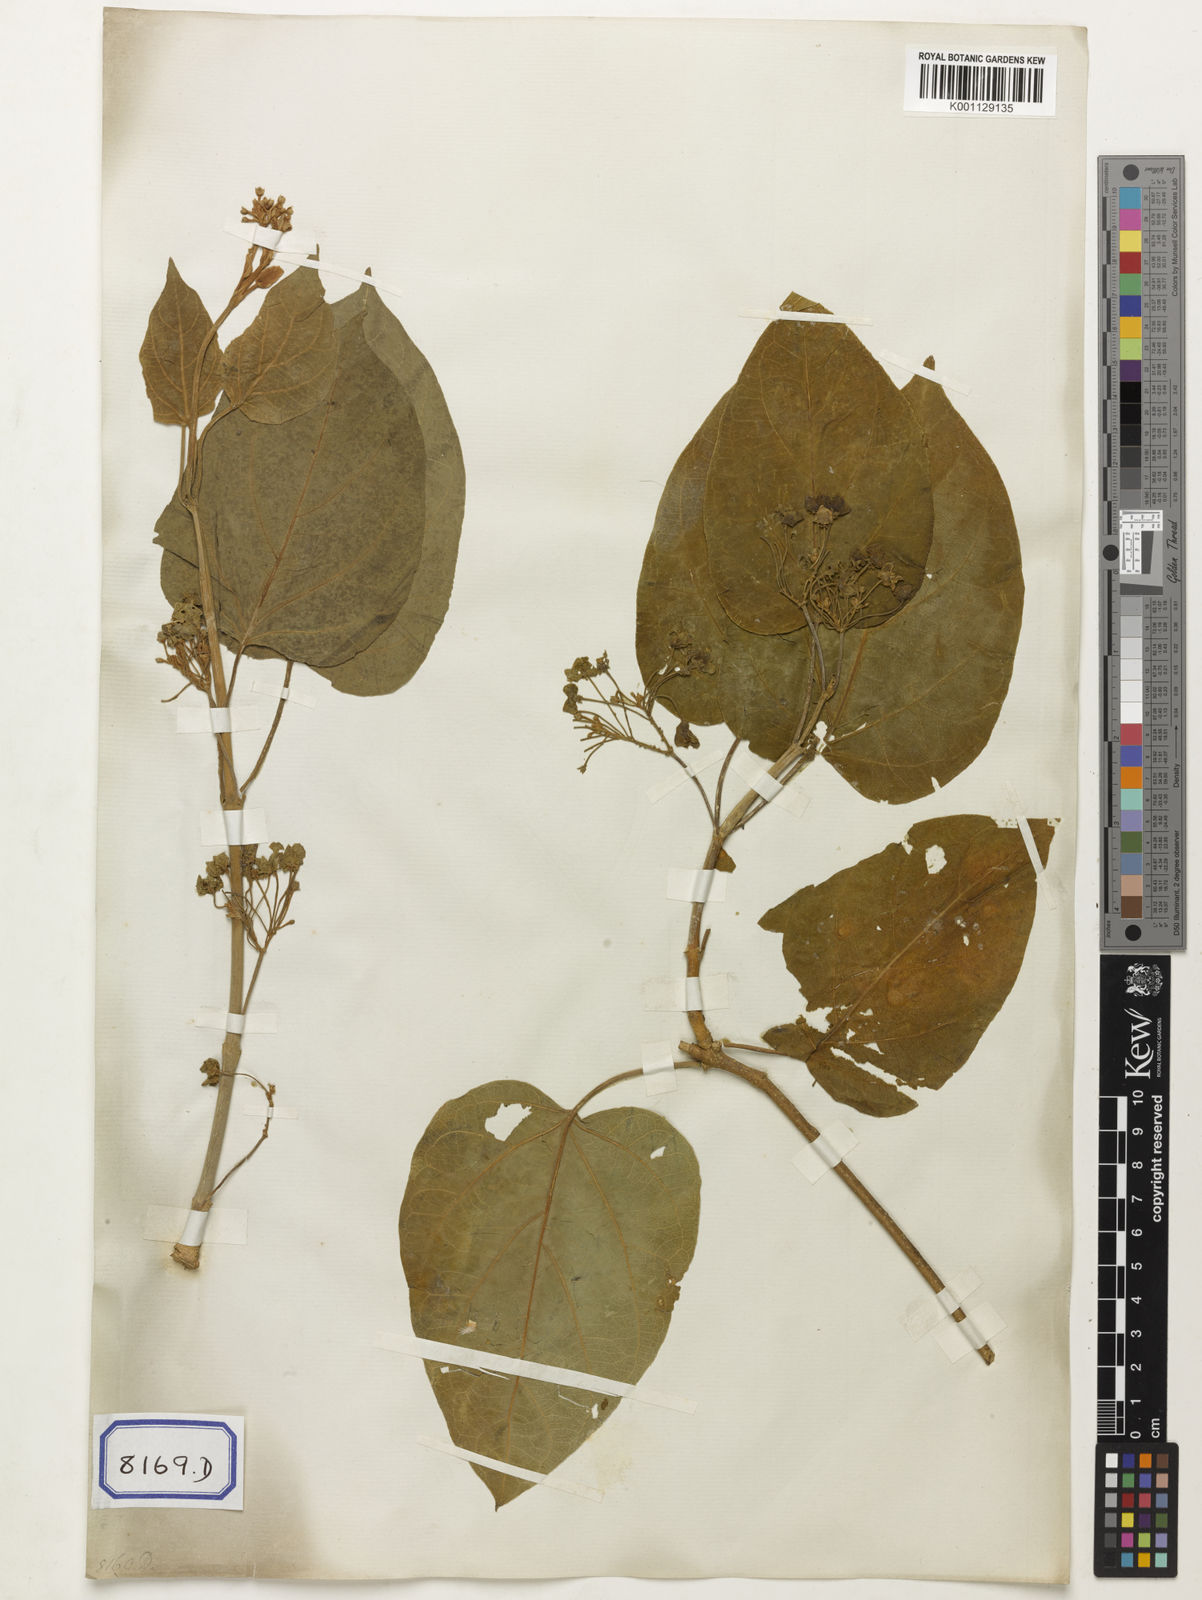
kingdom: Plantae
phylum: Tracheophyta
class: Magnoliopsida
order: Gentianales
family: Apocynaceae
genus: Hoya
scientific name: Hoya
